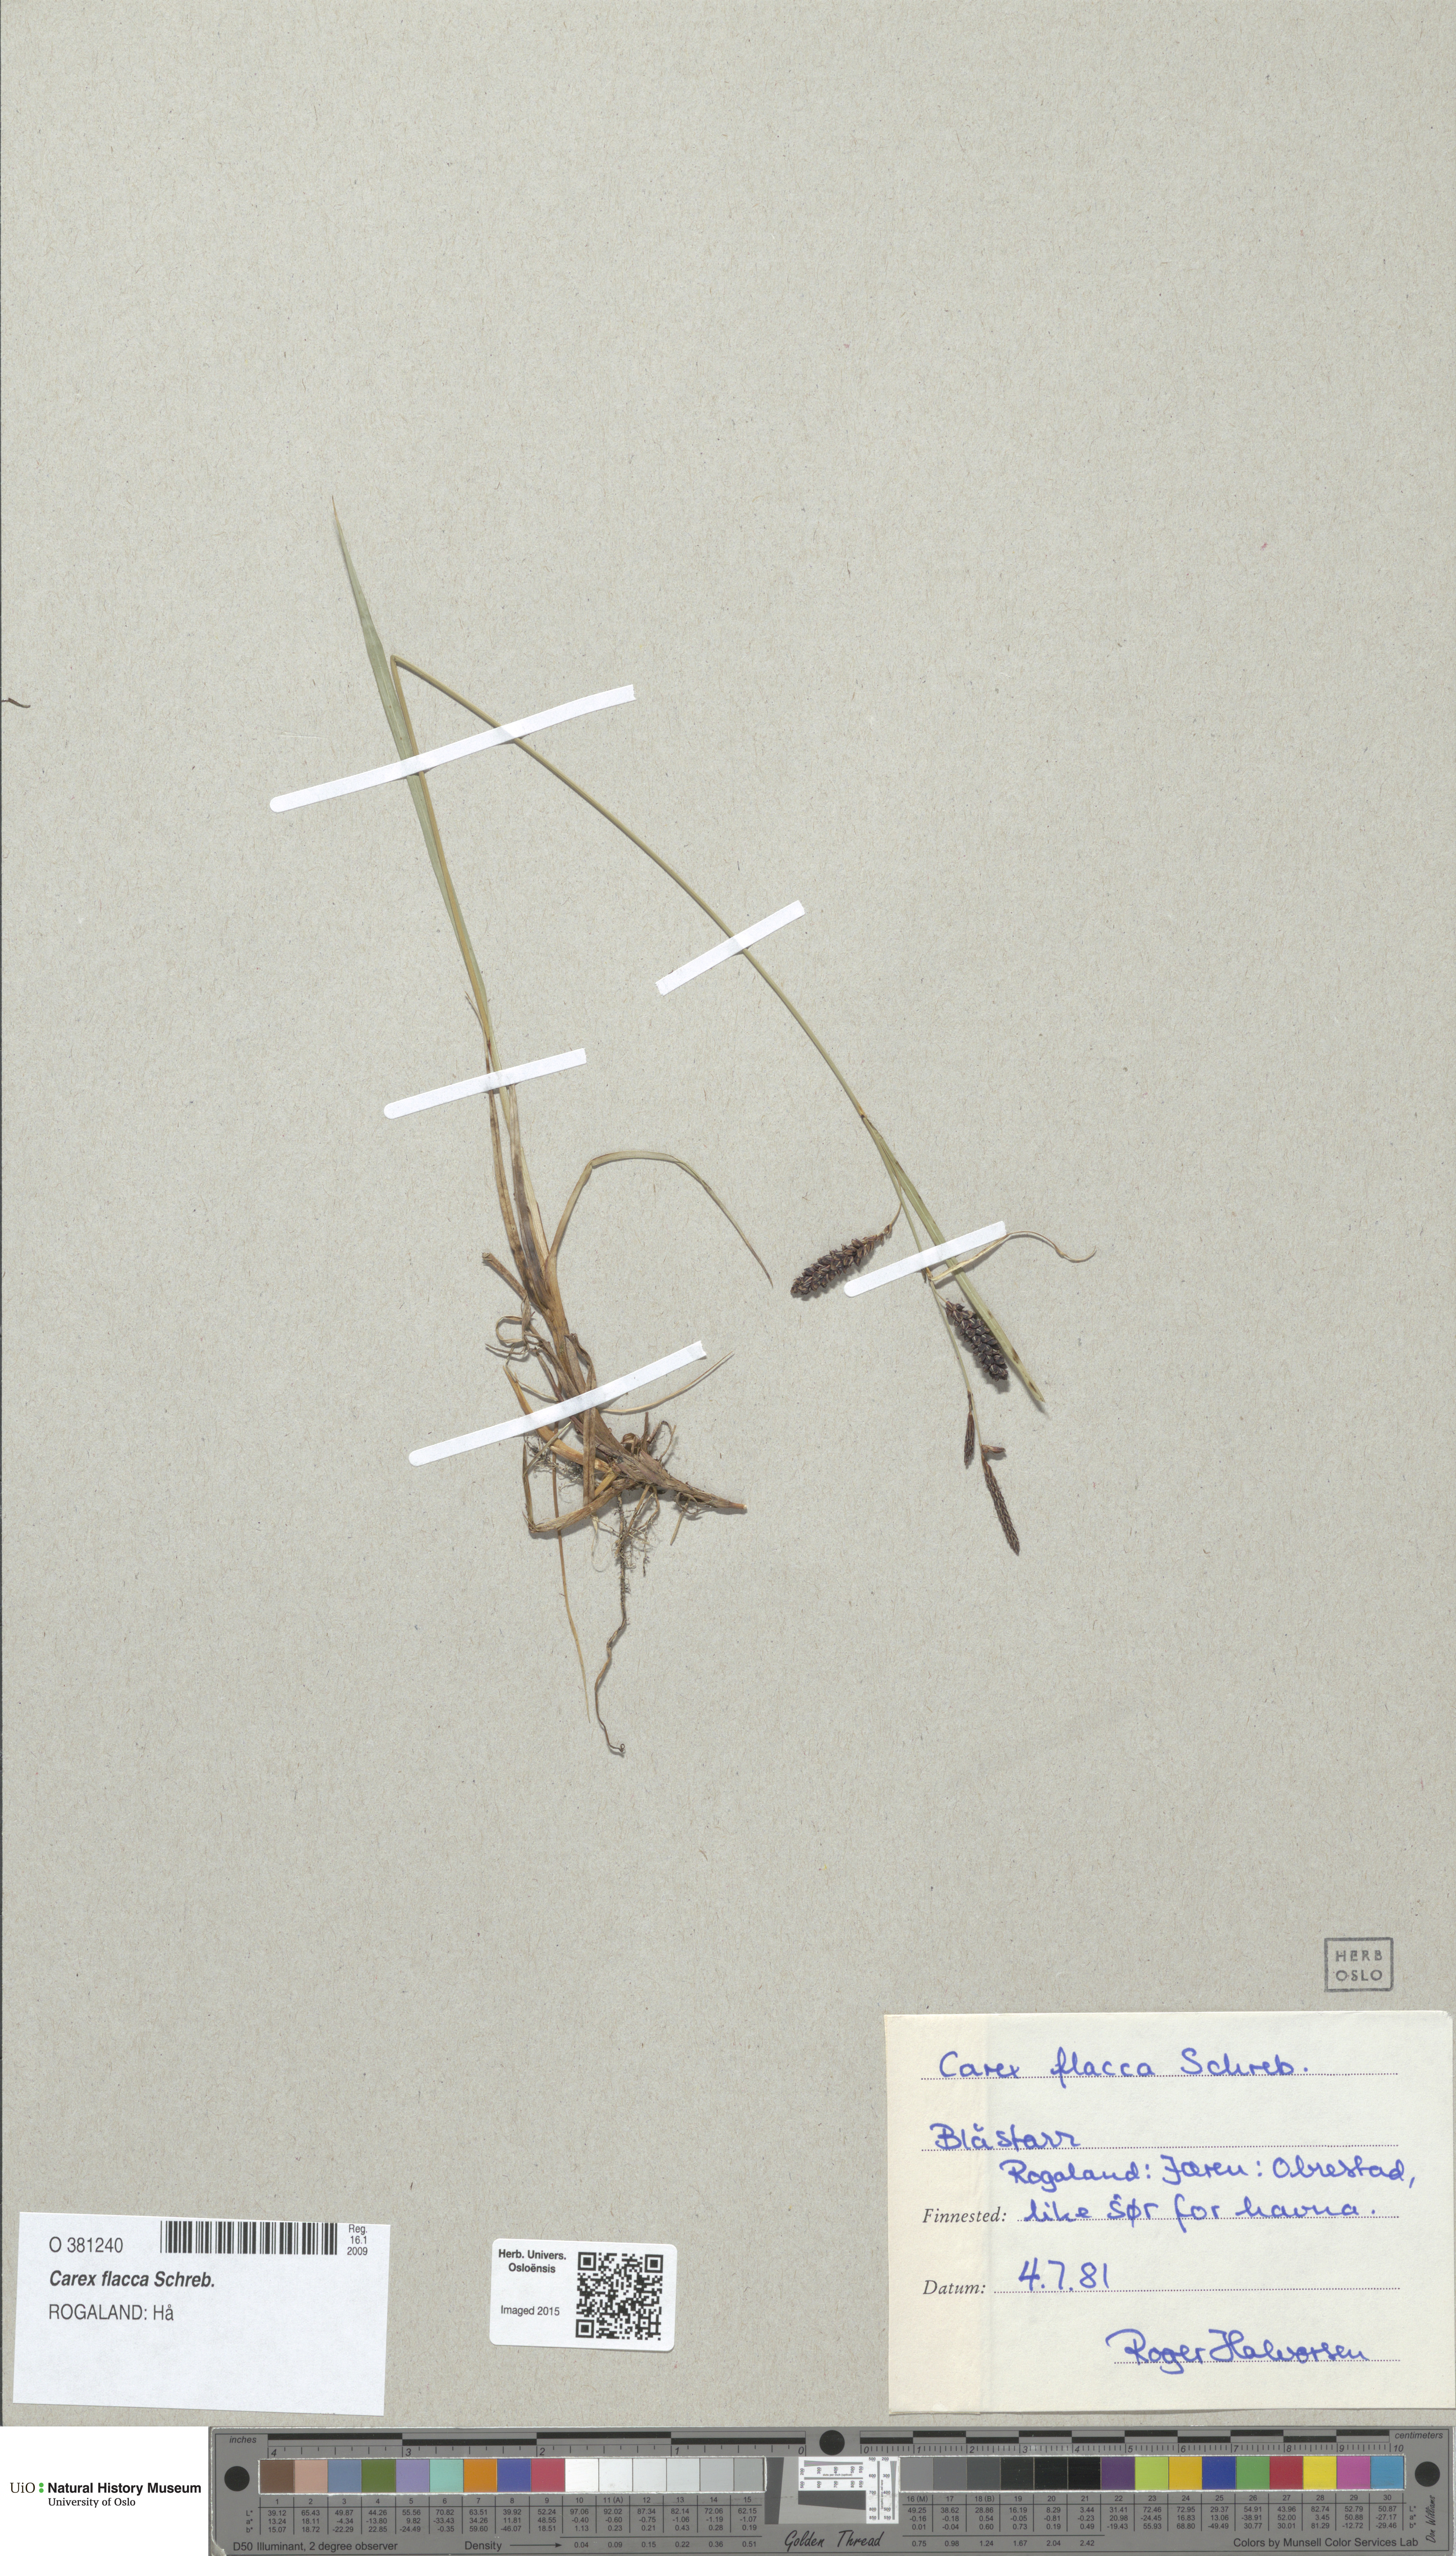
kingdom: Plantae
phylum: Tracheophyta
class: Liliopsida
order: Poales
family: Cyperaceae
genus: Carex
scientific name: Carex flacca
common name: Glaucous sedge
